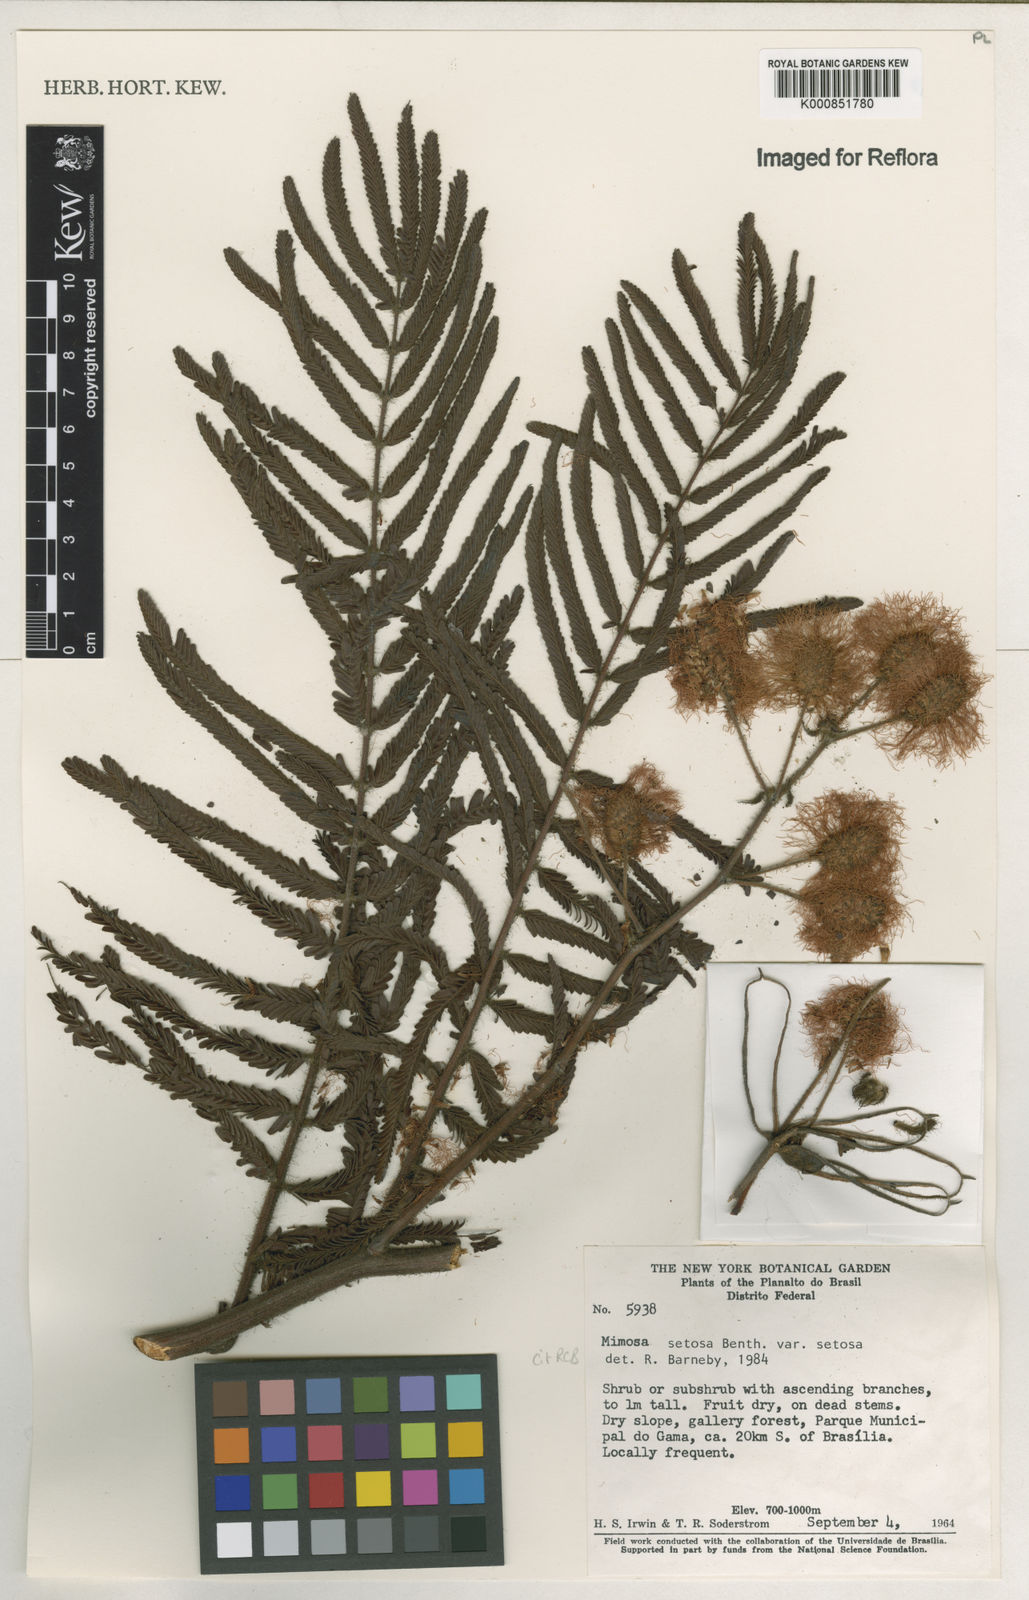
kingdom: Plantae
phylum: Tracheophyta
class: Magnoliopsida
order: Fabales
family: Fabaceae
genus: Mimosa
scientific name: Mimosa setosa
